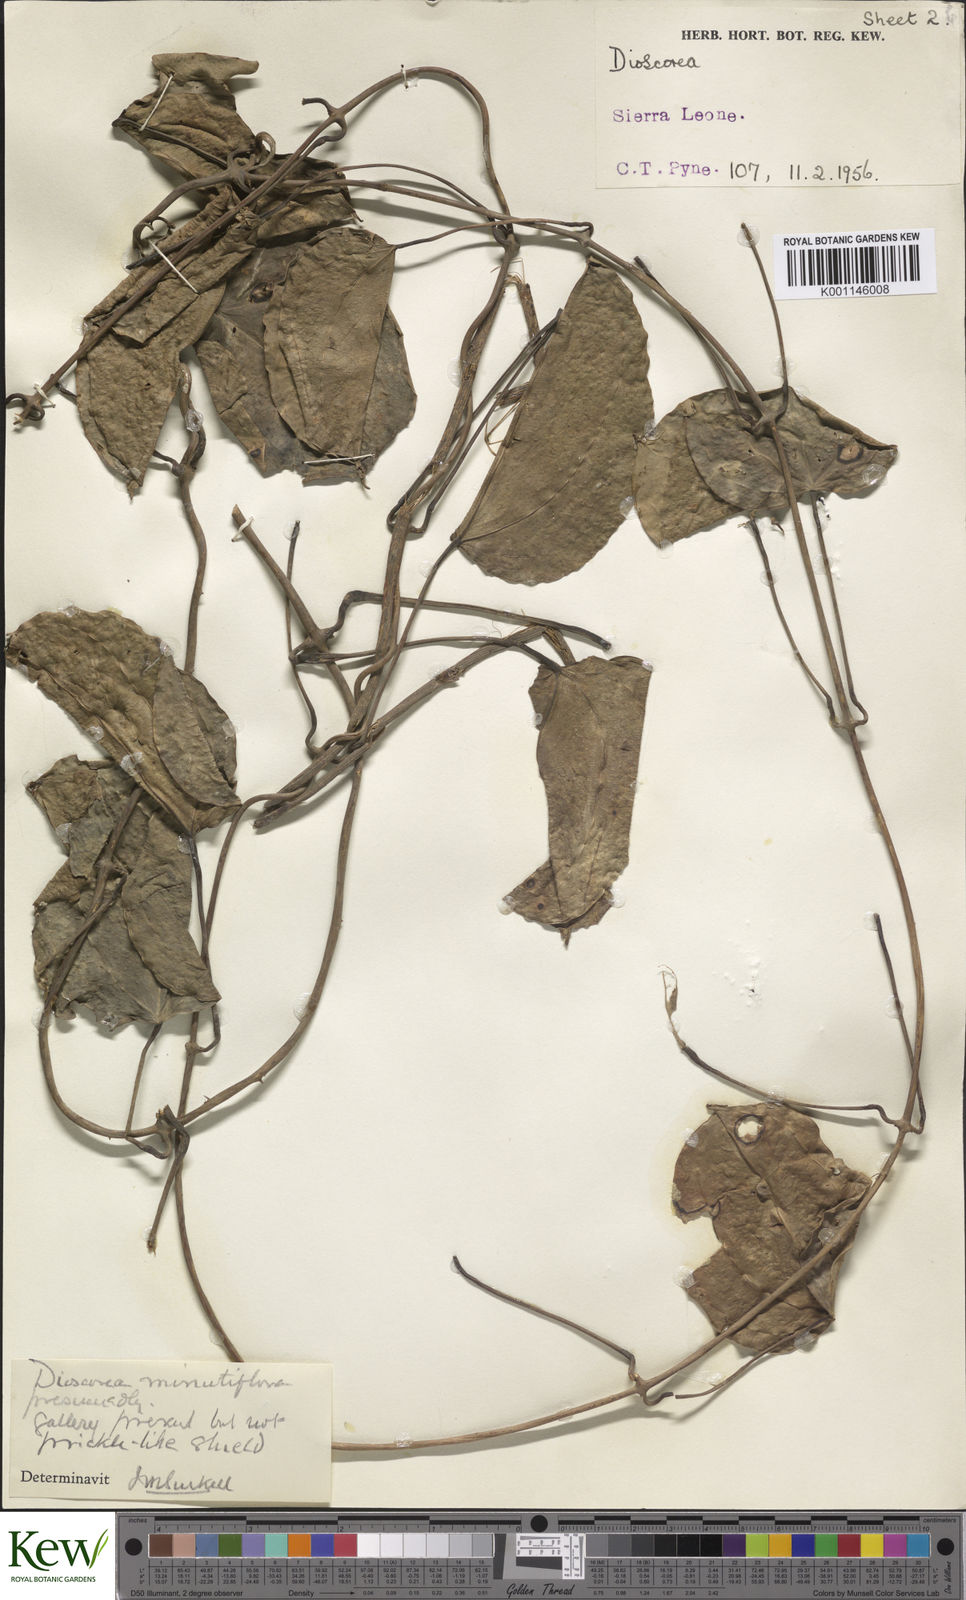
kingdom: Plantae
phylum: Tracheophyta
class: Liliopsida
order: Dioscoreales
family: Dioscoreaceae
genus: Dioscorea
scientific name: Dioscorea minutiflora
